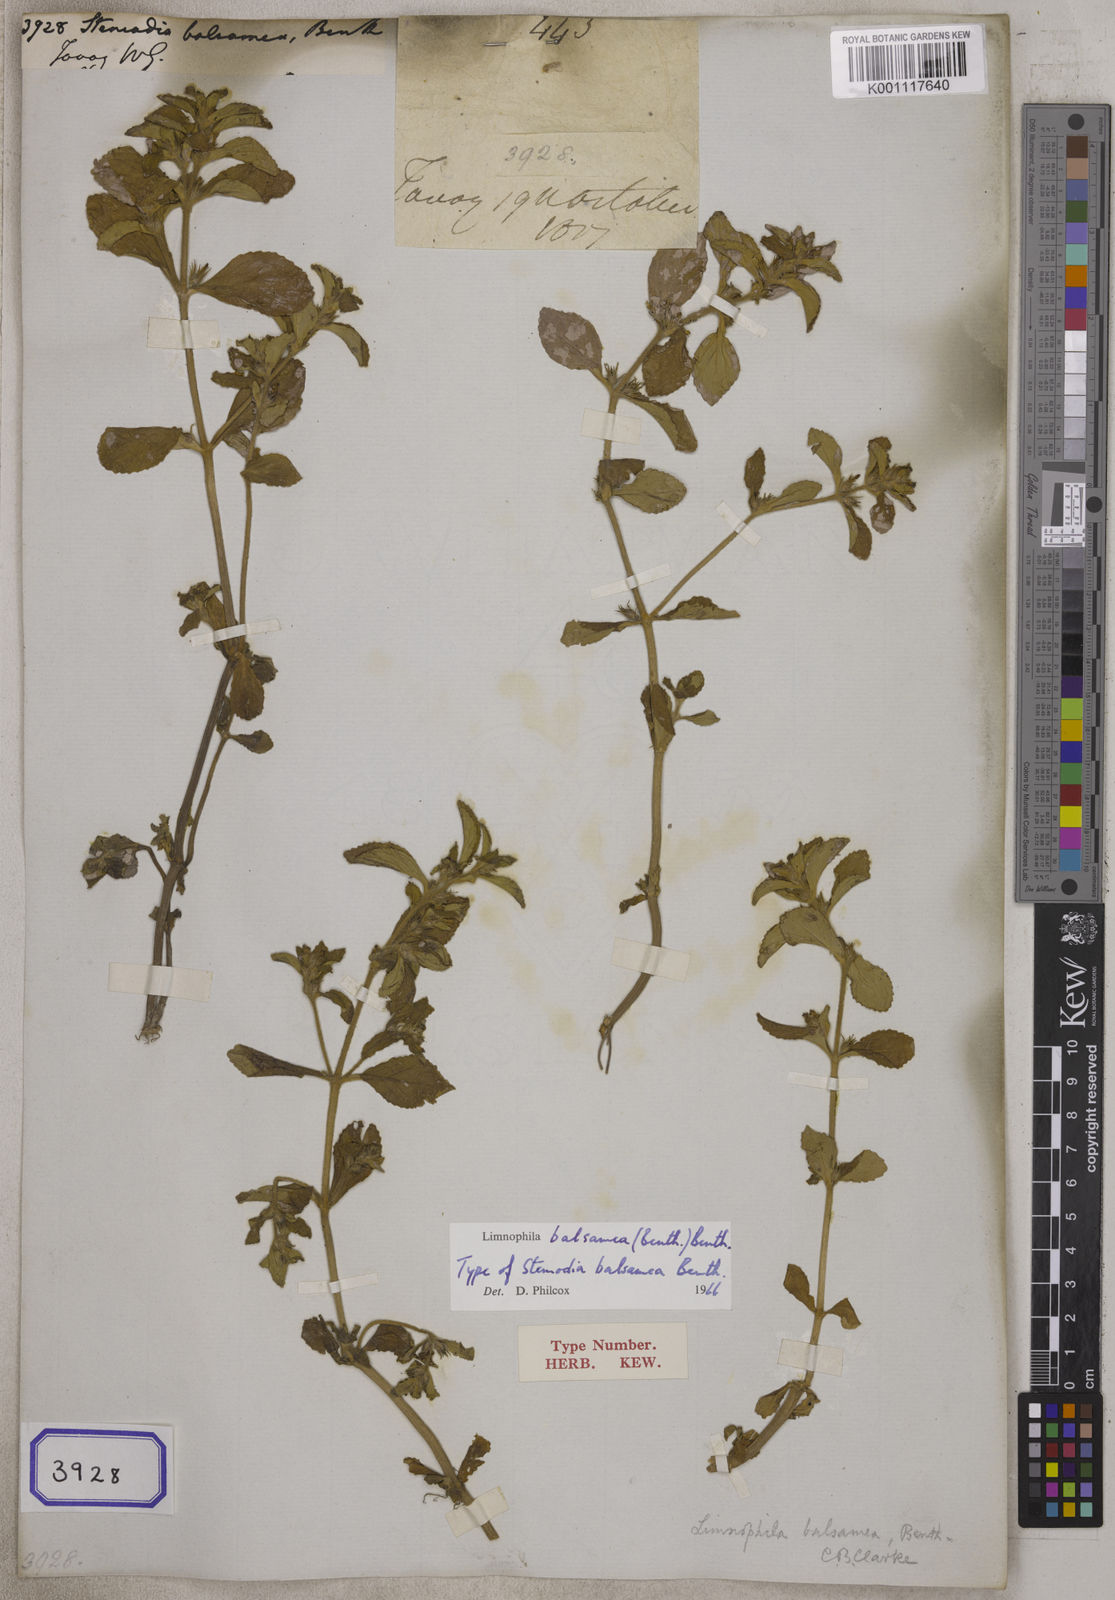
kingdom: Plantae
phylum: Tracheophyta
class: Magnoliopsida
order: Lamiales
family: Plantaginaceae
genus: Stemodia
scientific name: Stemodia
